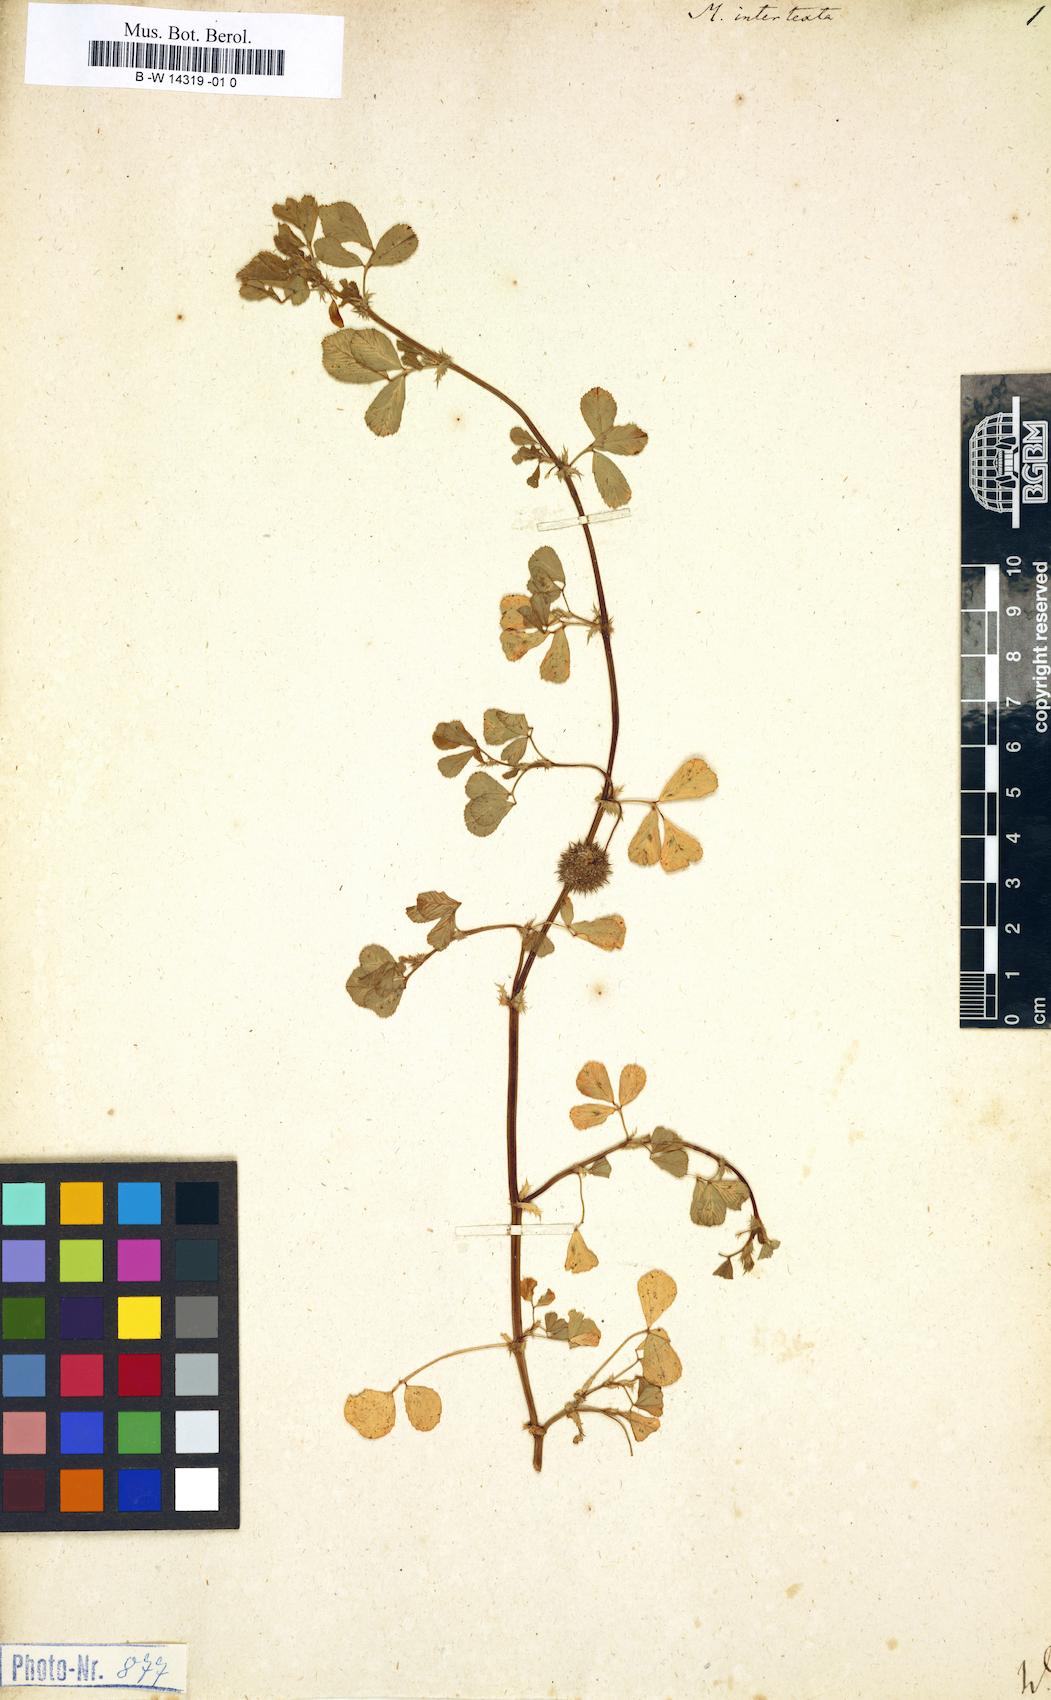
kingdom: Plantae
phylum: Tracheophyta
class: Magnoliopsida
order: Fabales
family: Fabaceae
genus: Medicago
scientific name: Medicago intertexta
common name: Hedgehog medick
